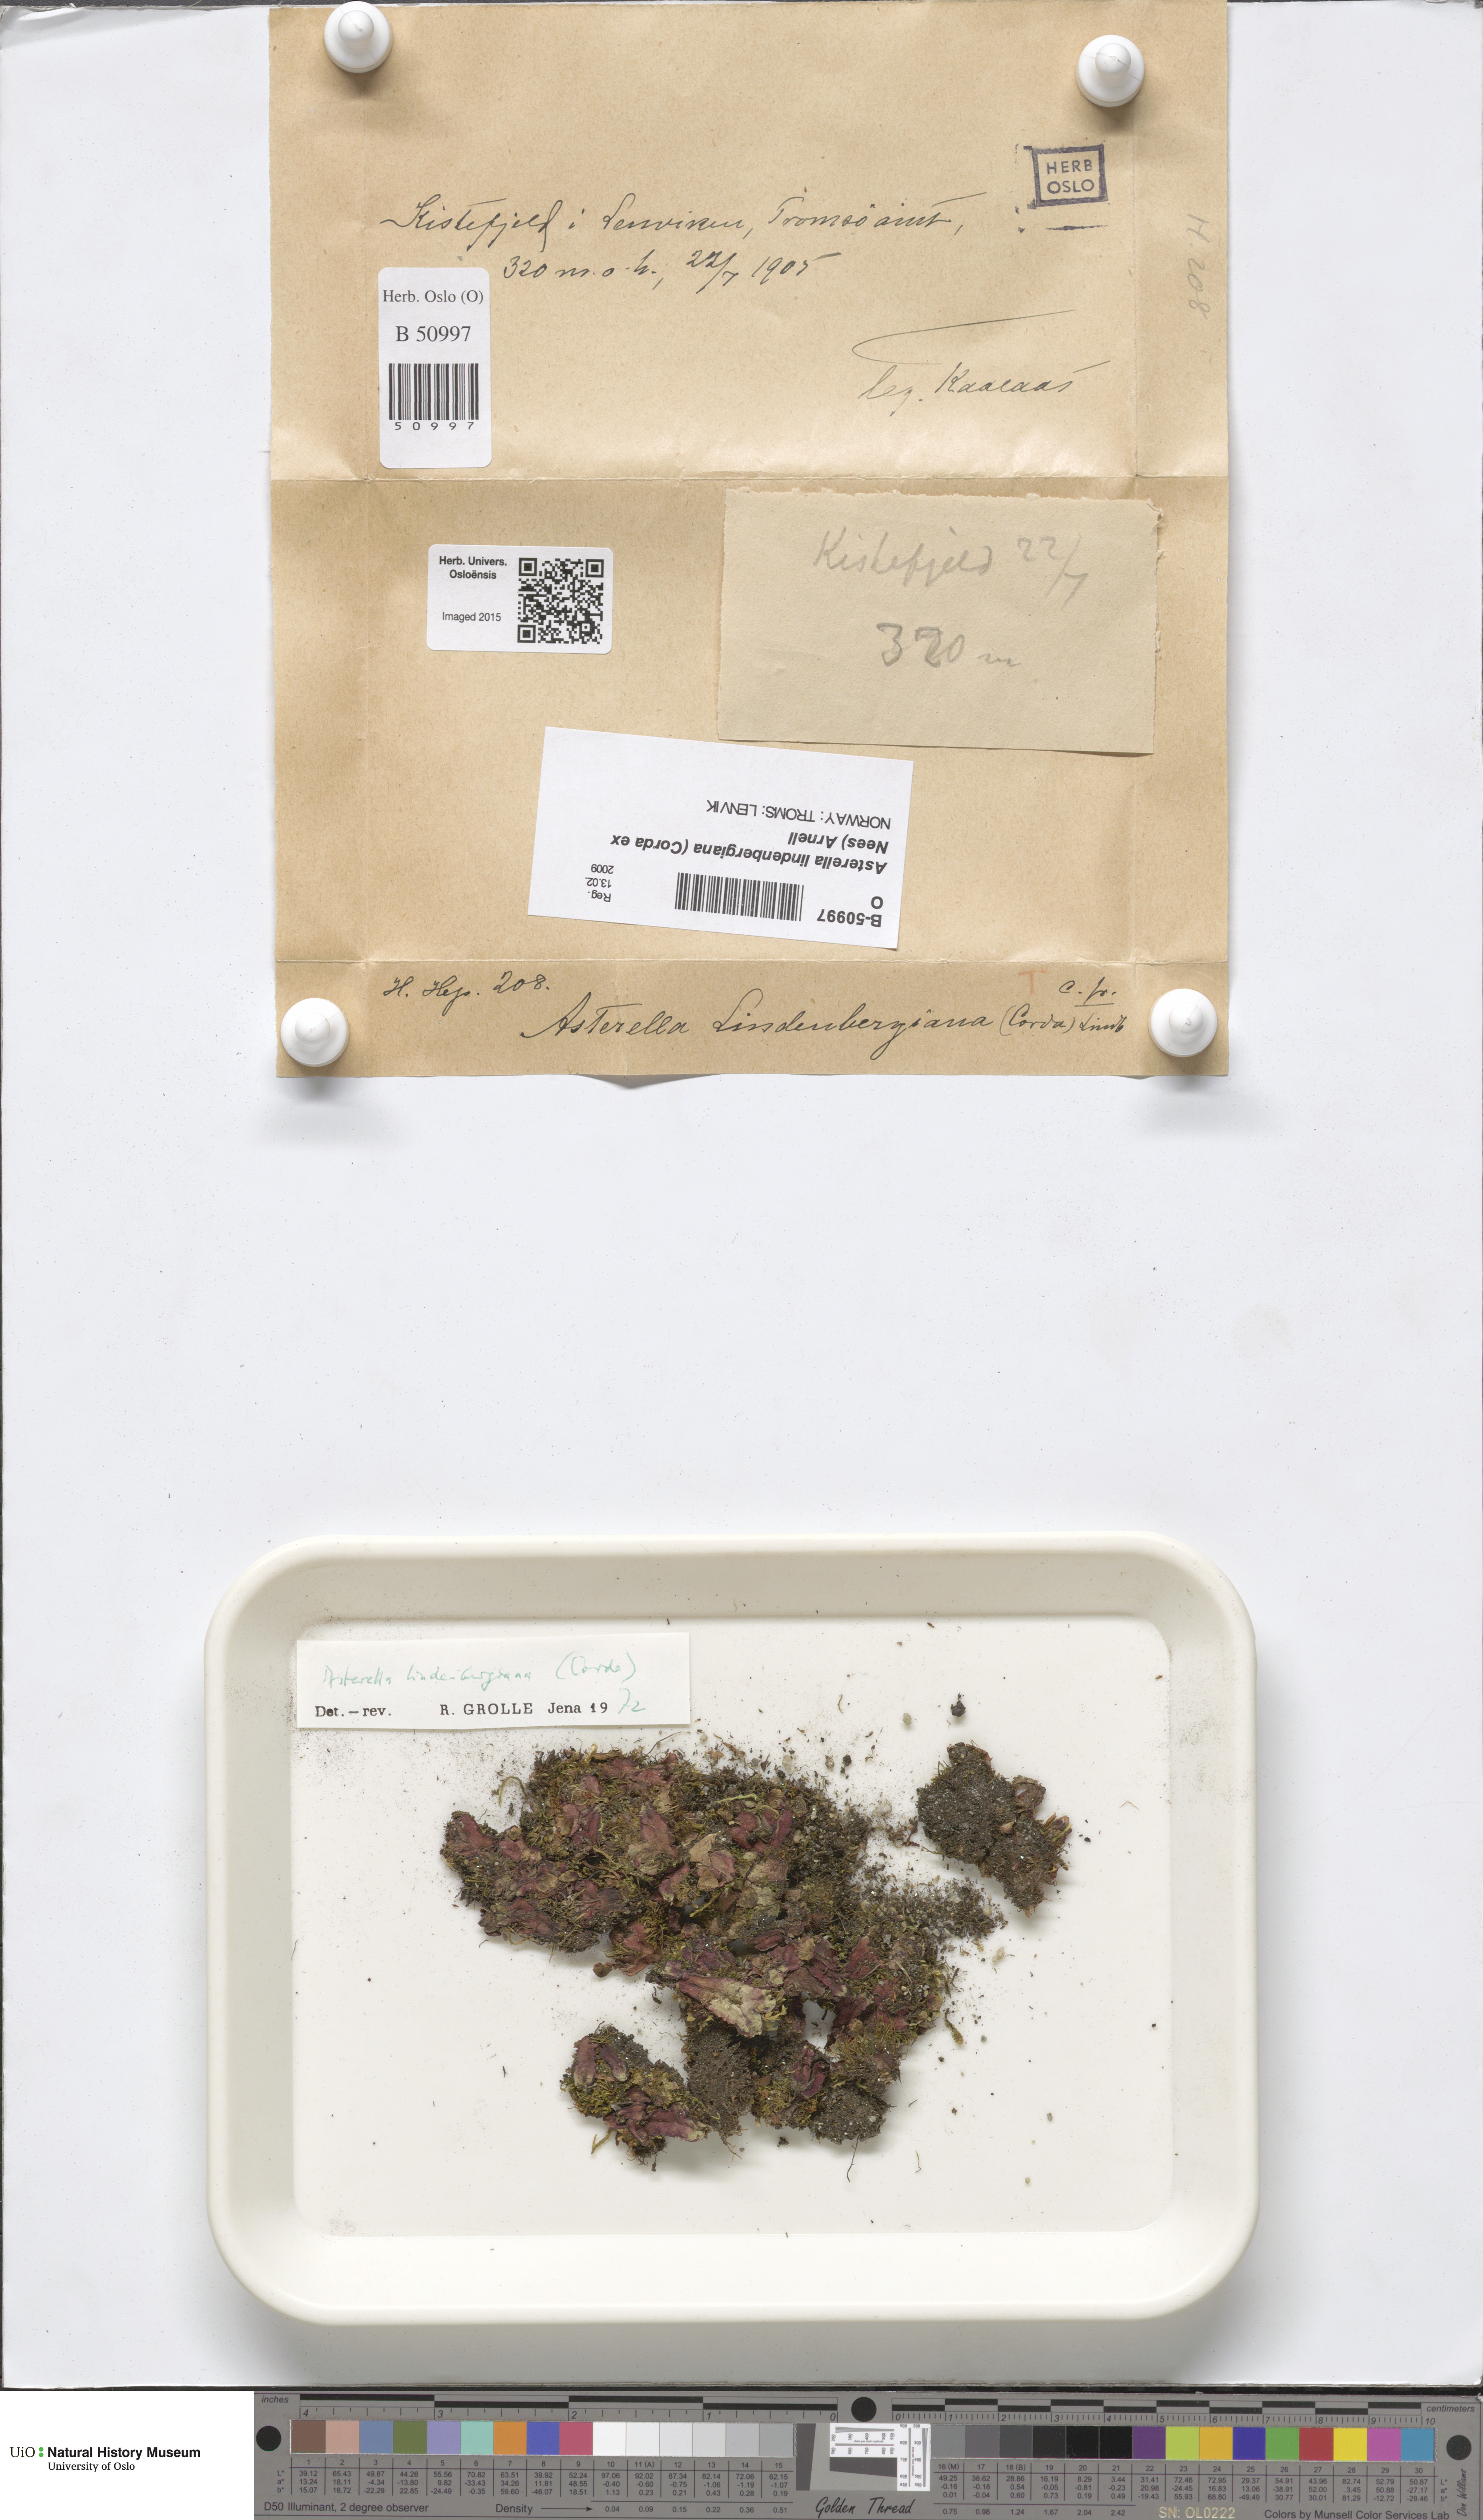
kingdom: Plantae
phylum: Marchantiophyta
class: Marchantiopsida
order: Marchantiales
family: Aytoniaceae
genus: Asterella
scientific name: Asterella lindenbergiana
